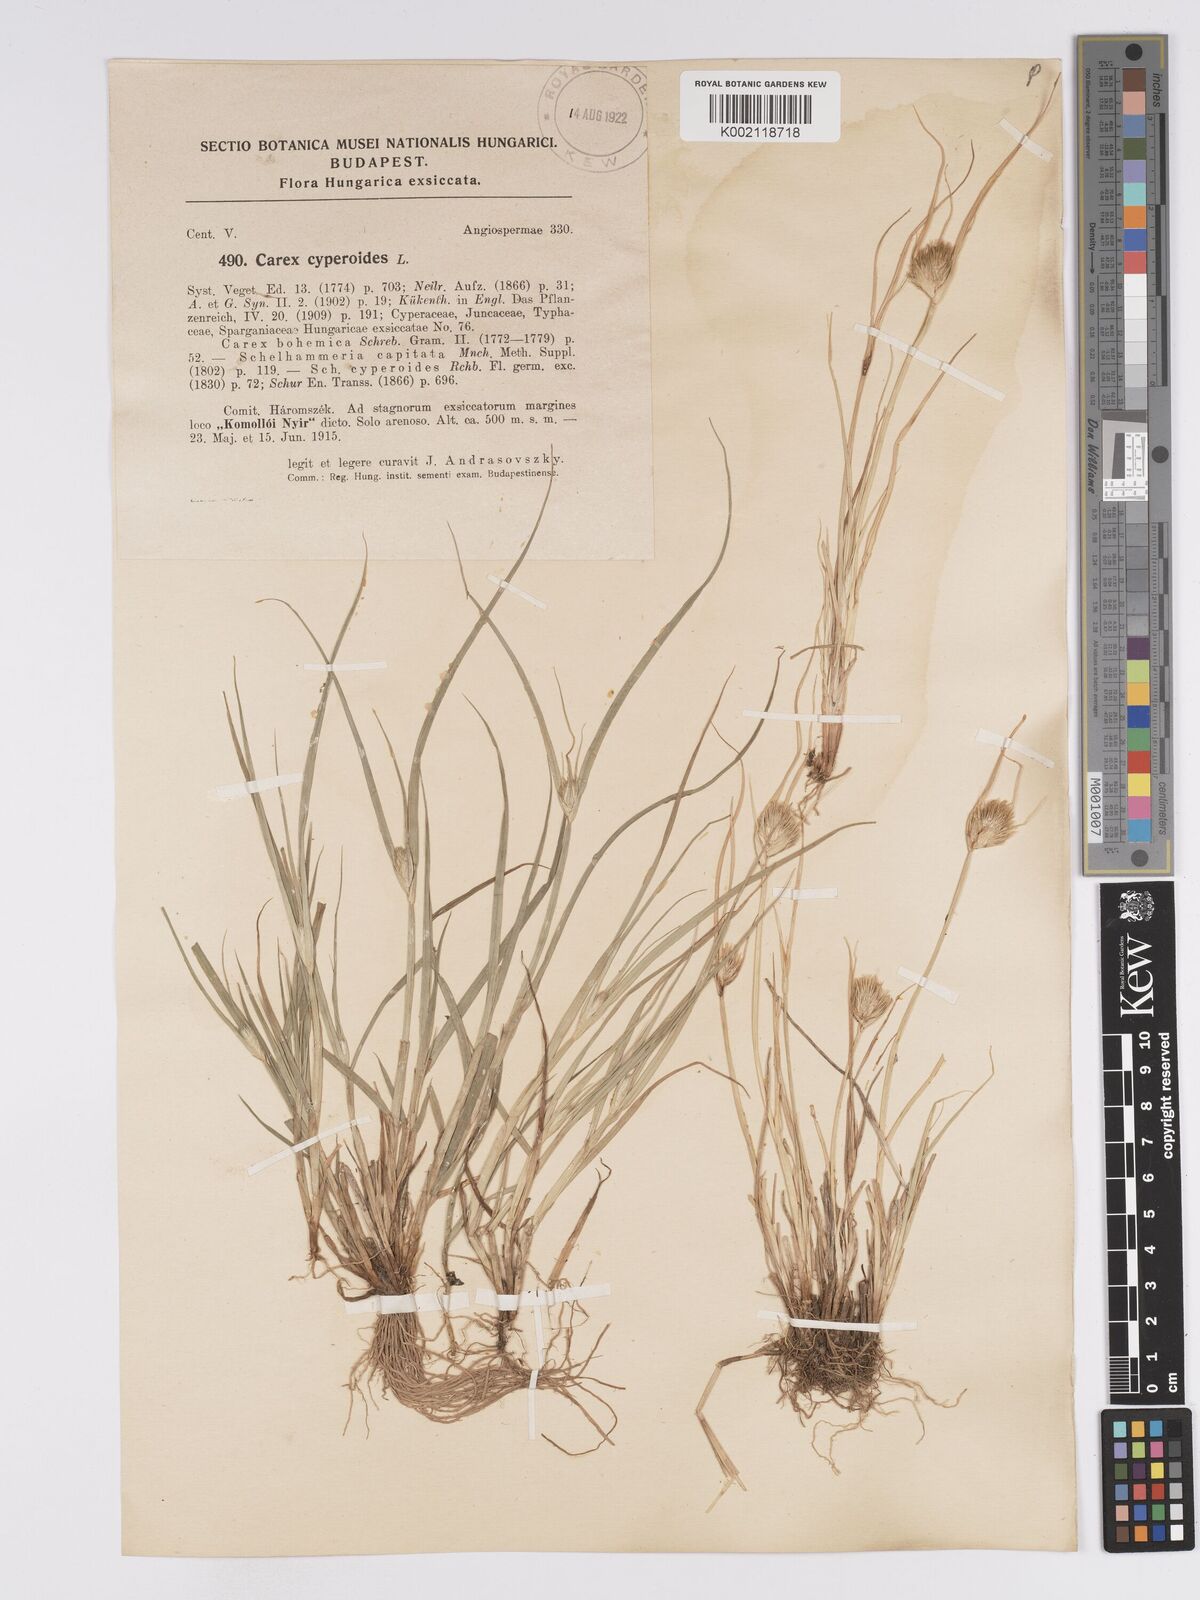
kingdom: Plantae
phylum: Tracheophyta
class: Liliopsida
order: Poales
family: Cyperaceae
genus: Carex
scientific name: Carex bohemica
